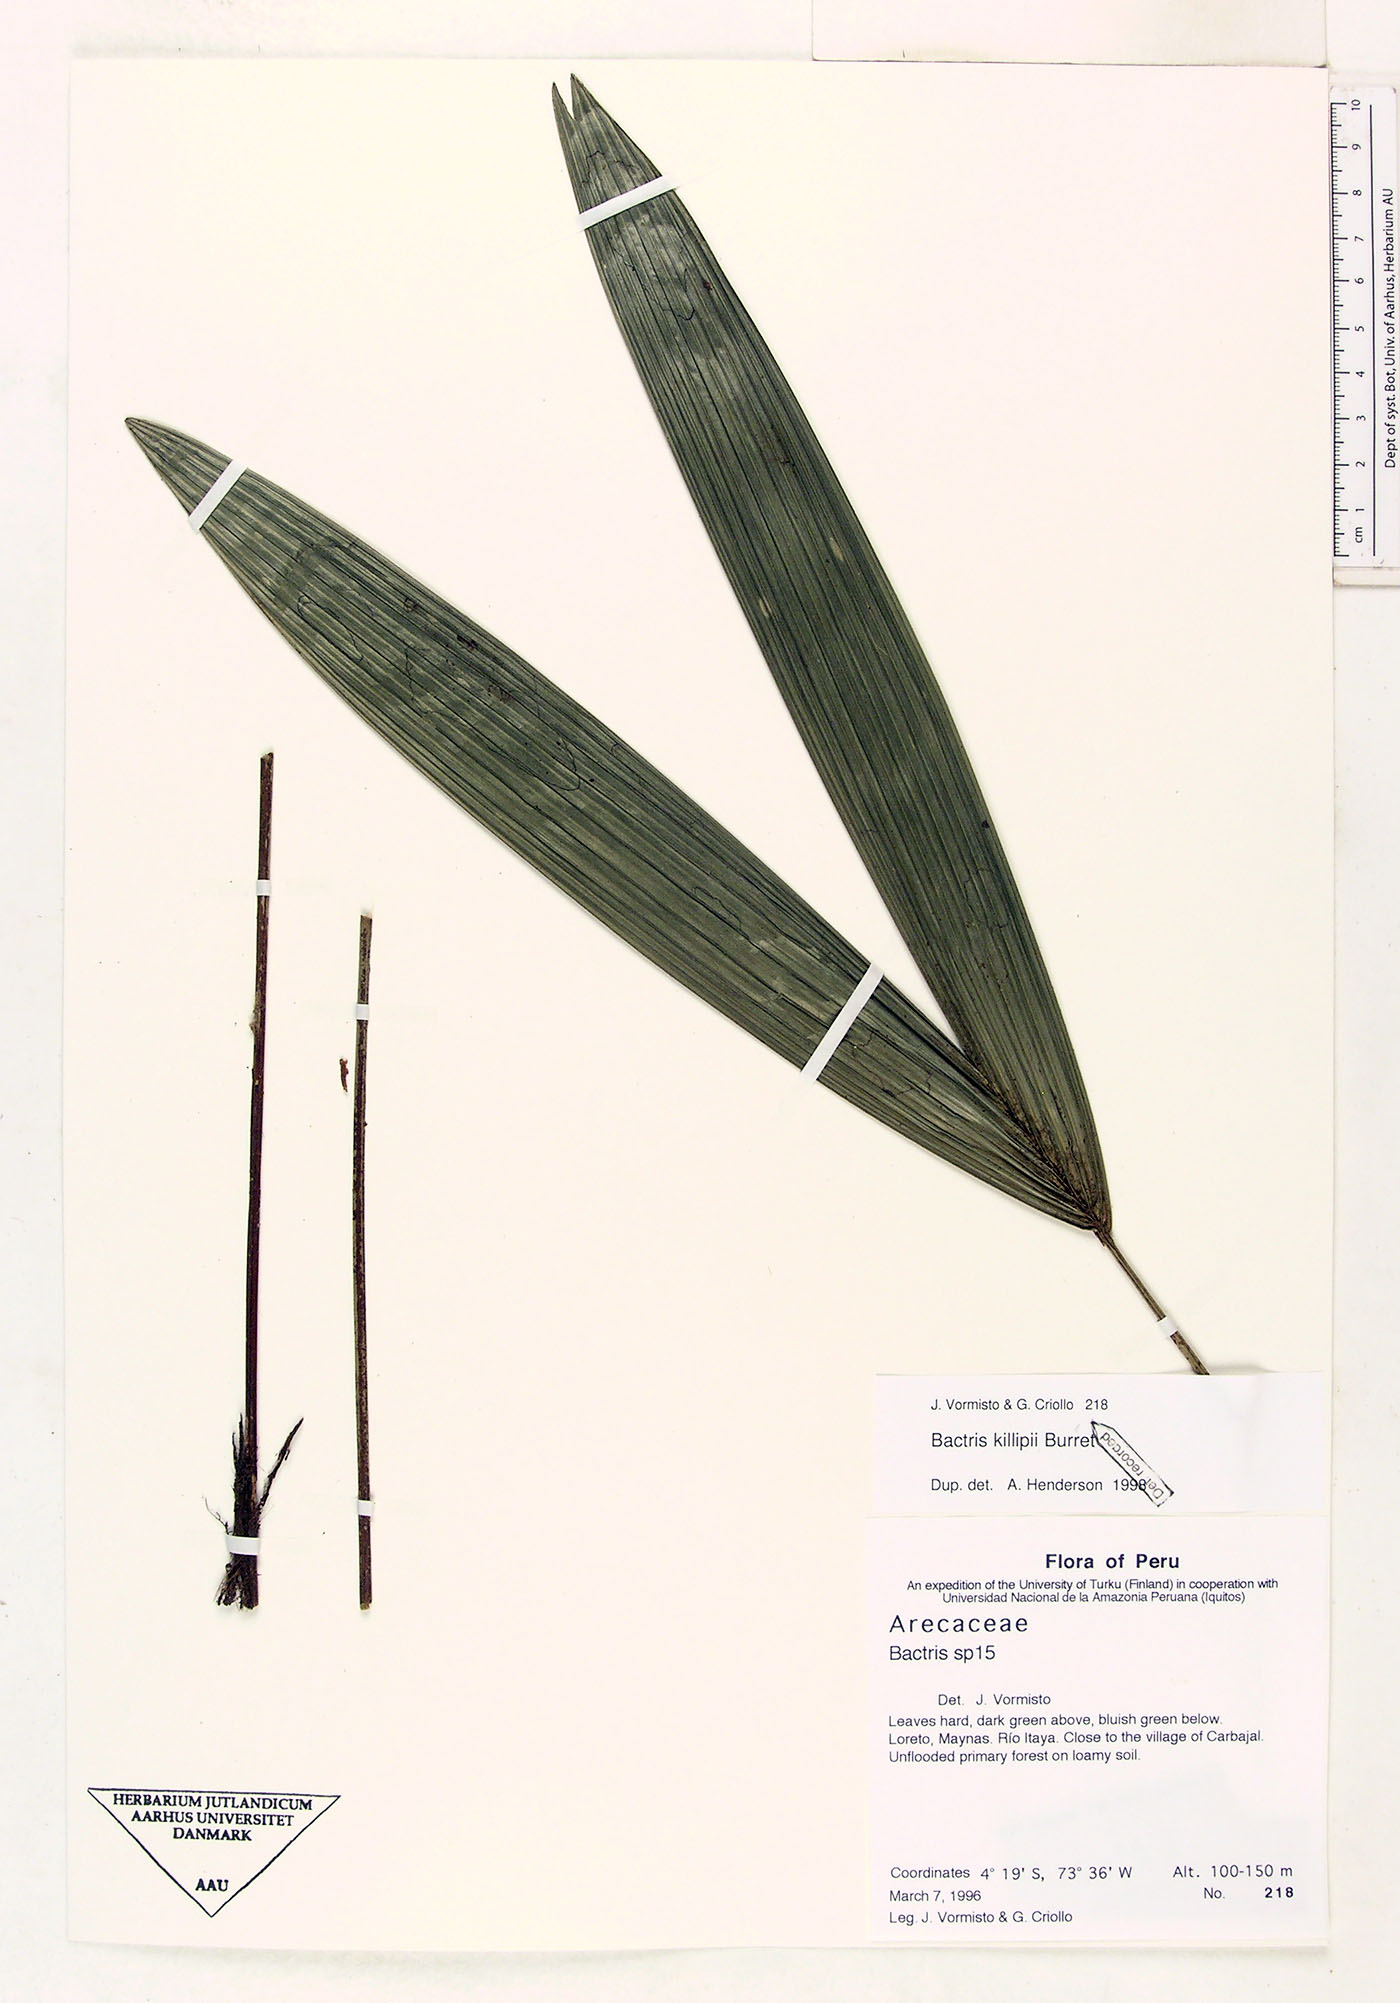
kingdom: Plantae
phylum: Tracheophyta
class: Liliopsida
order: Arecales
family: Arecaceae
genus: Bactris
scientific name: Bactris killipii
